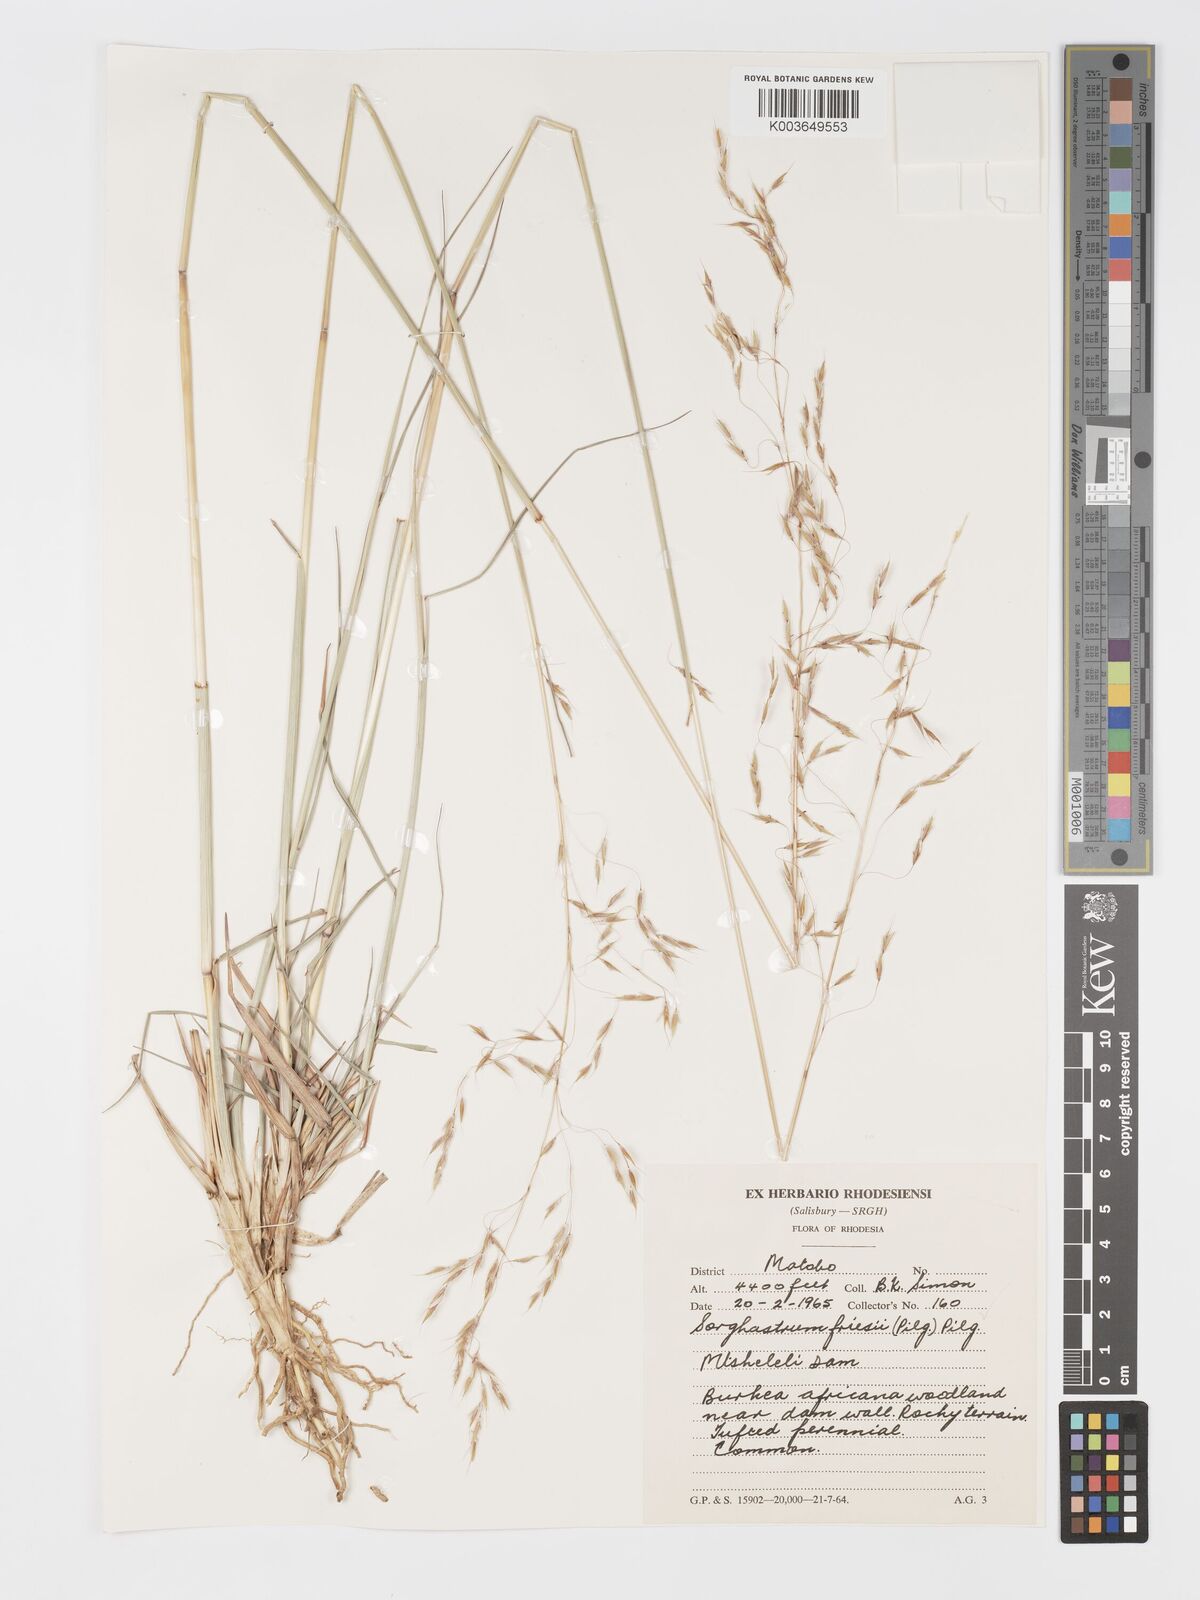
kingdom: Plantae
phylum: Tracheophyta
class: Liliopsida
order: Poales
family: Poaceae
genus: Sorghastrum
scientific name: Sorghastrum nudipes
